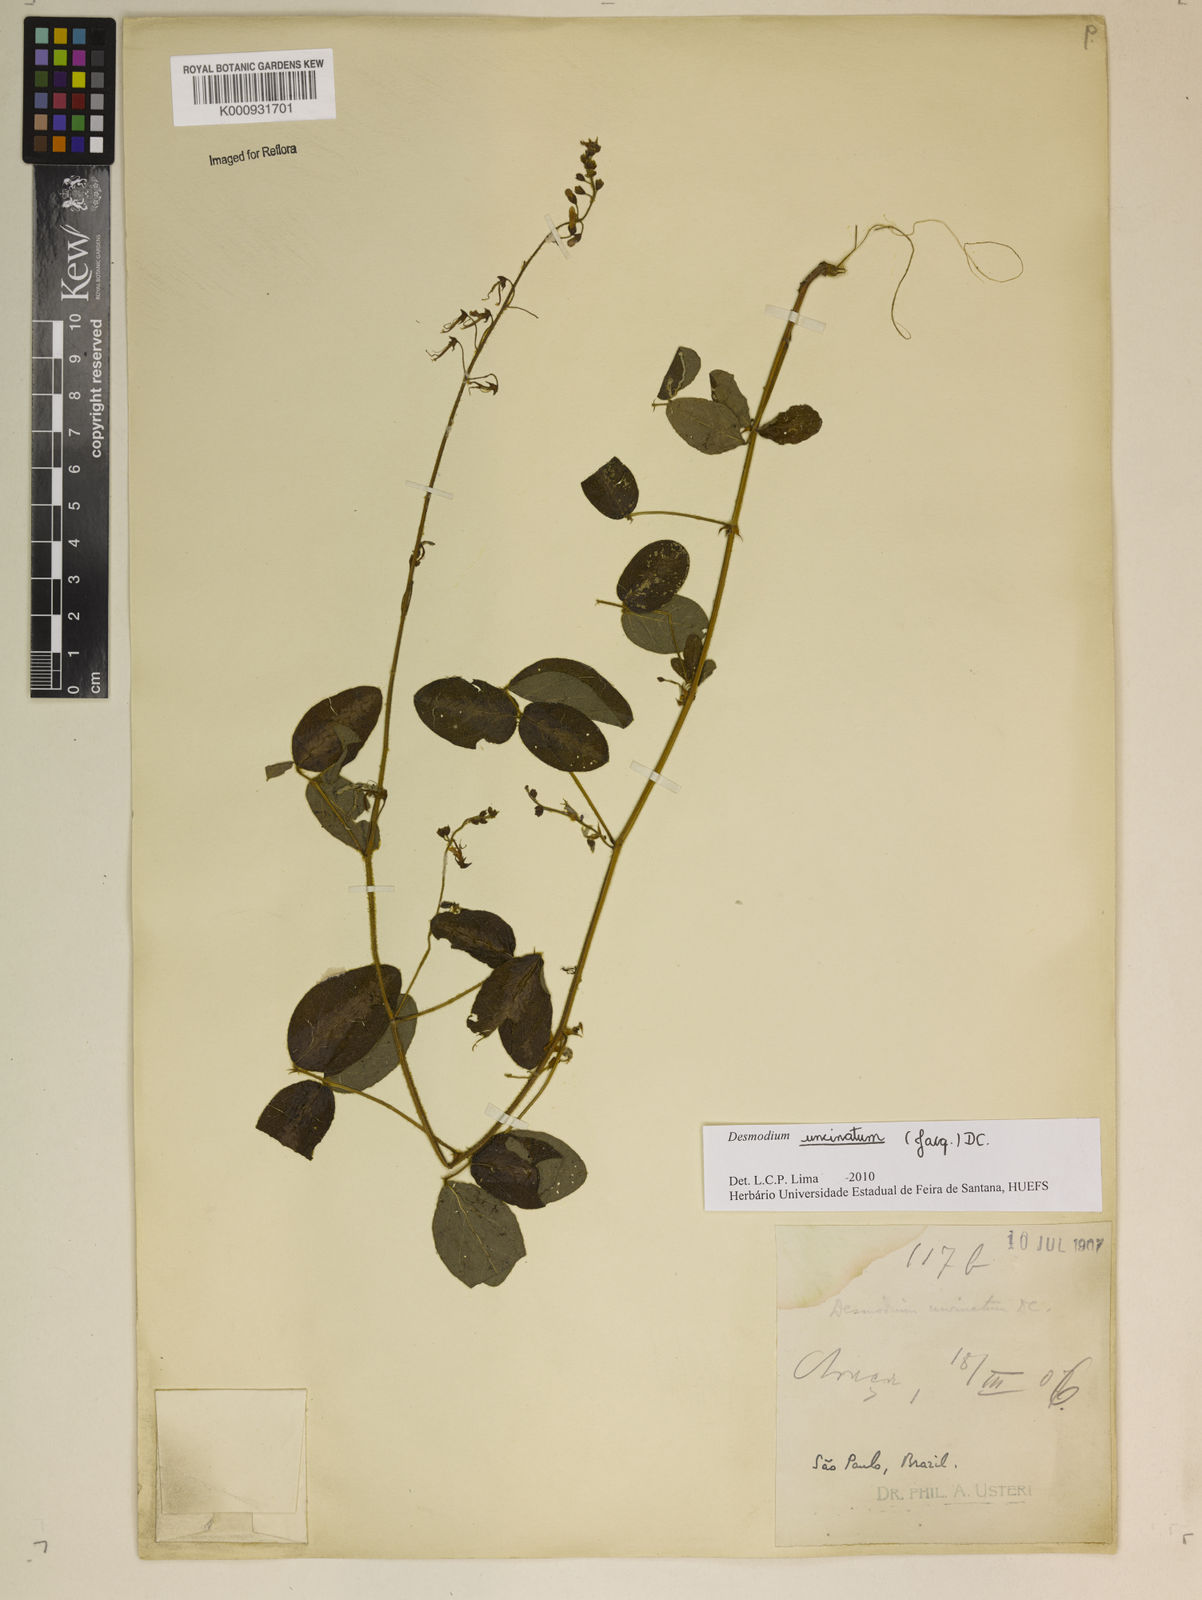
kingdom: Plantae
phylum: Tracheophyta
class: Magnoliopsida
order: Fabales
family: Fabaceae
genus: Desmodium
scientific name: Desmodium uncinatum
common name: Silverleaf desmodium
